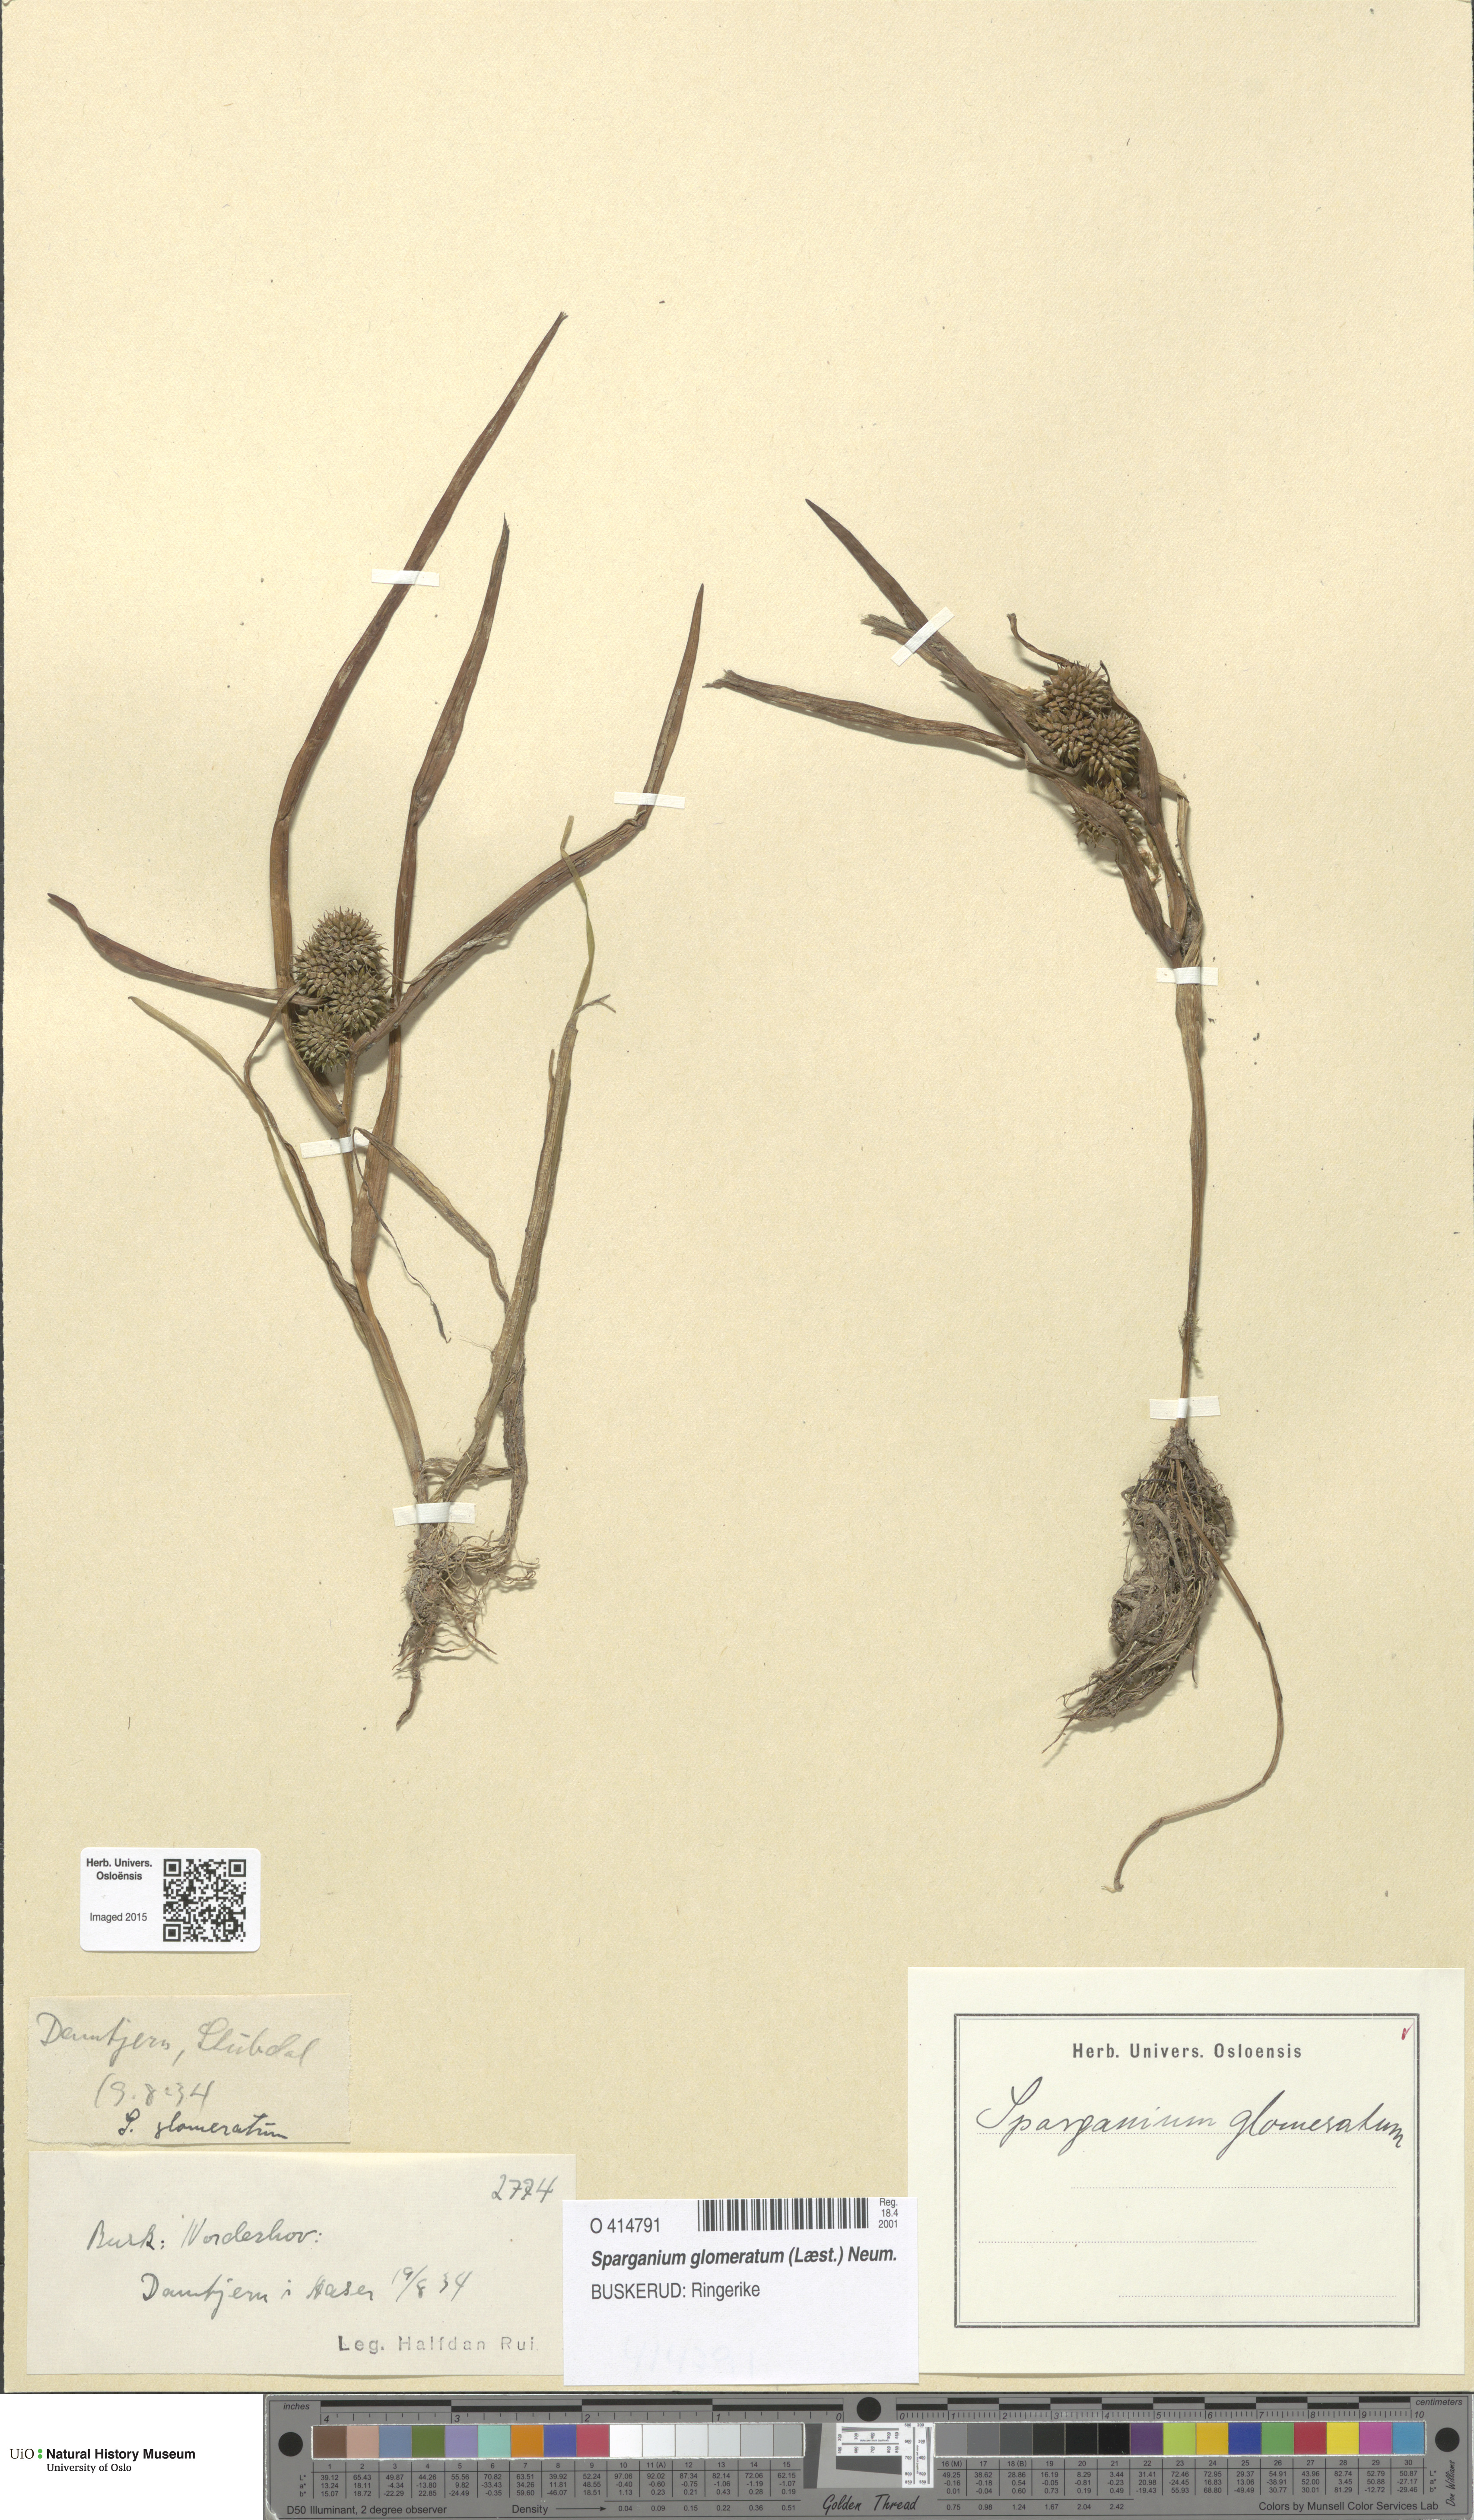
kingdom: Plantae
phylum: Tracheophyta
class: Liliopsida
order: Poales
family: Typhaceae
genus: Sparganium
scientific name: Sparganium glomeratum
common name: Clustered burreed
